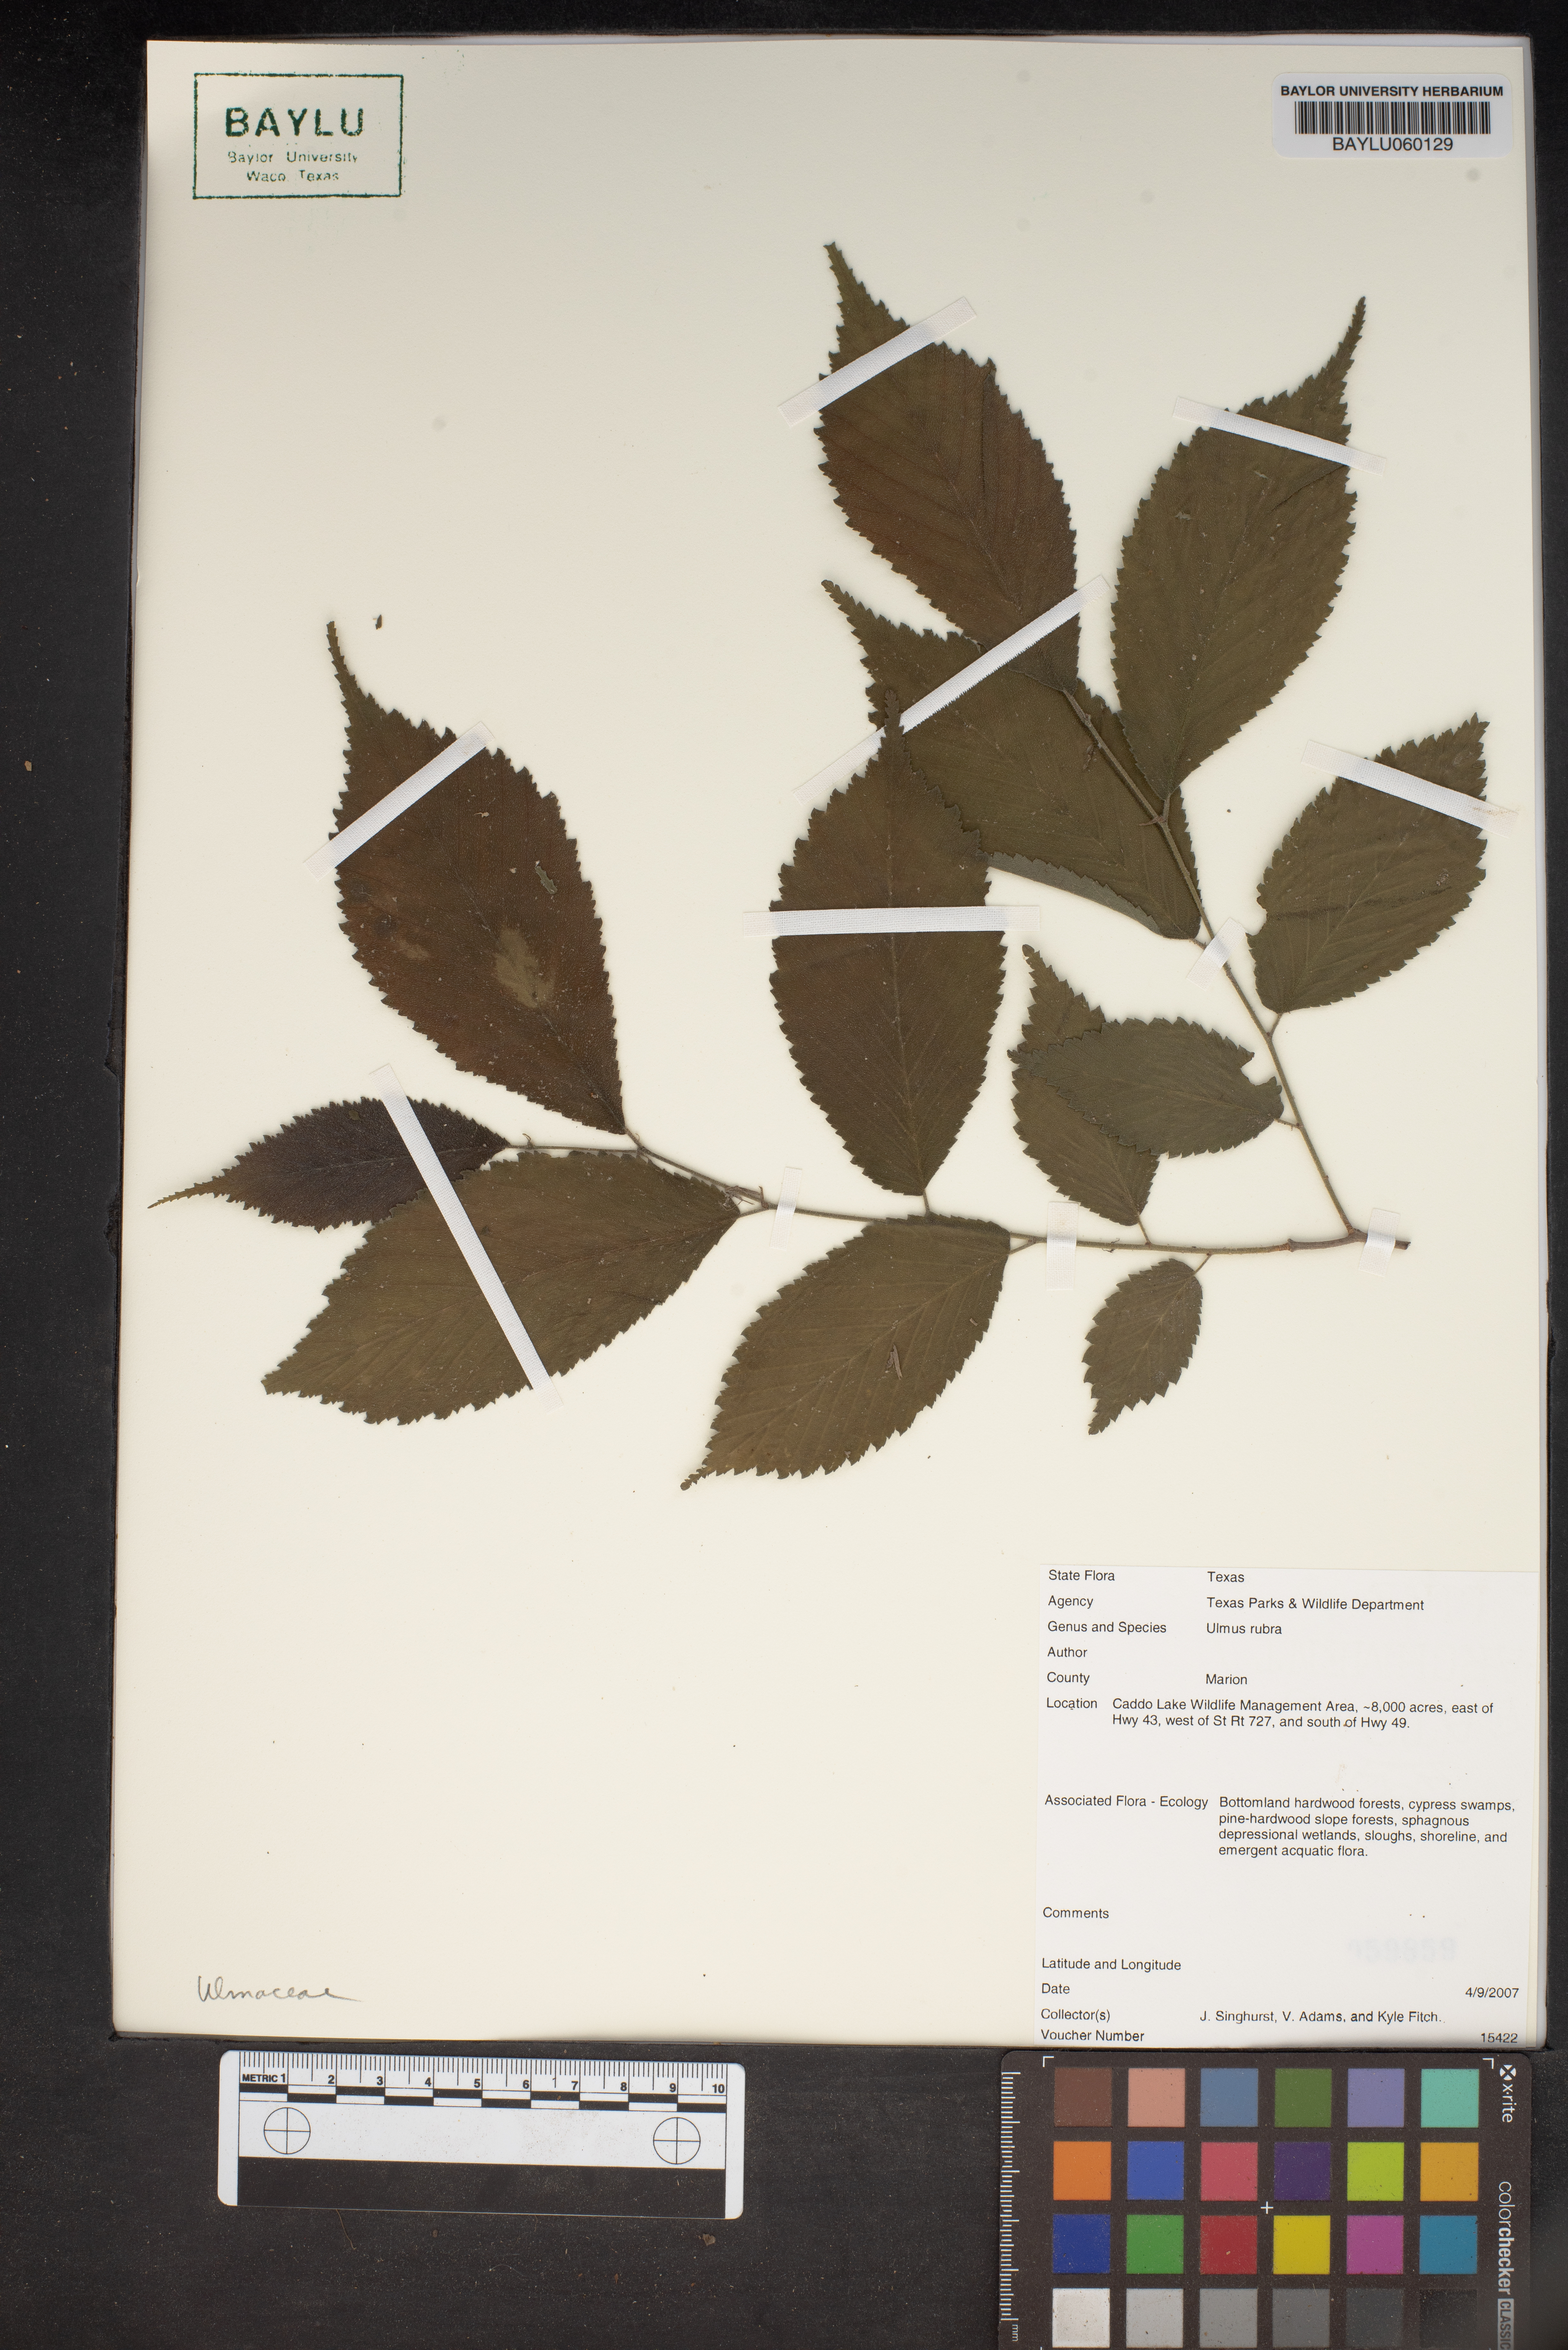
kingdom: Plantae
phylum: Tracheophyta
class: Magnoliopsida
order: Rosales
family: Ulmaceae
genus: Ulmus
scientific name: Ulmus rubra
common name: Slippery elm
